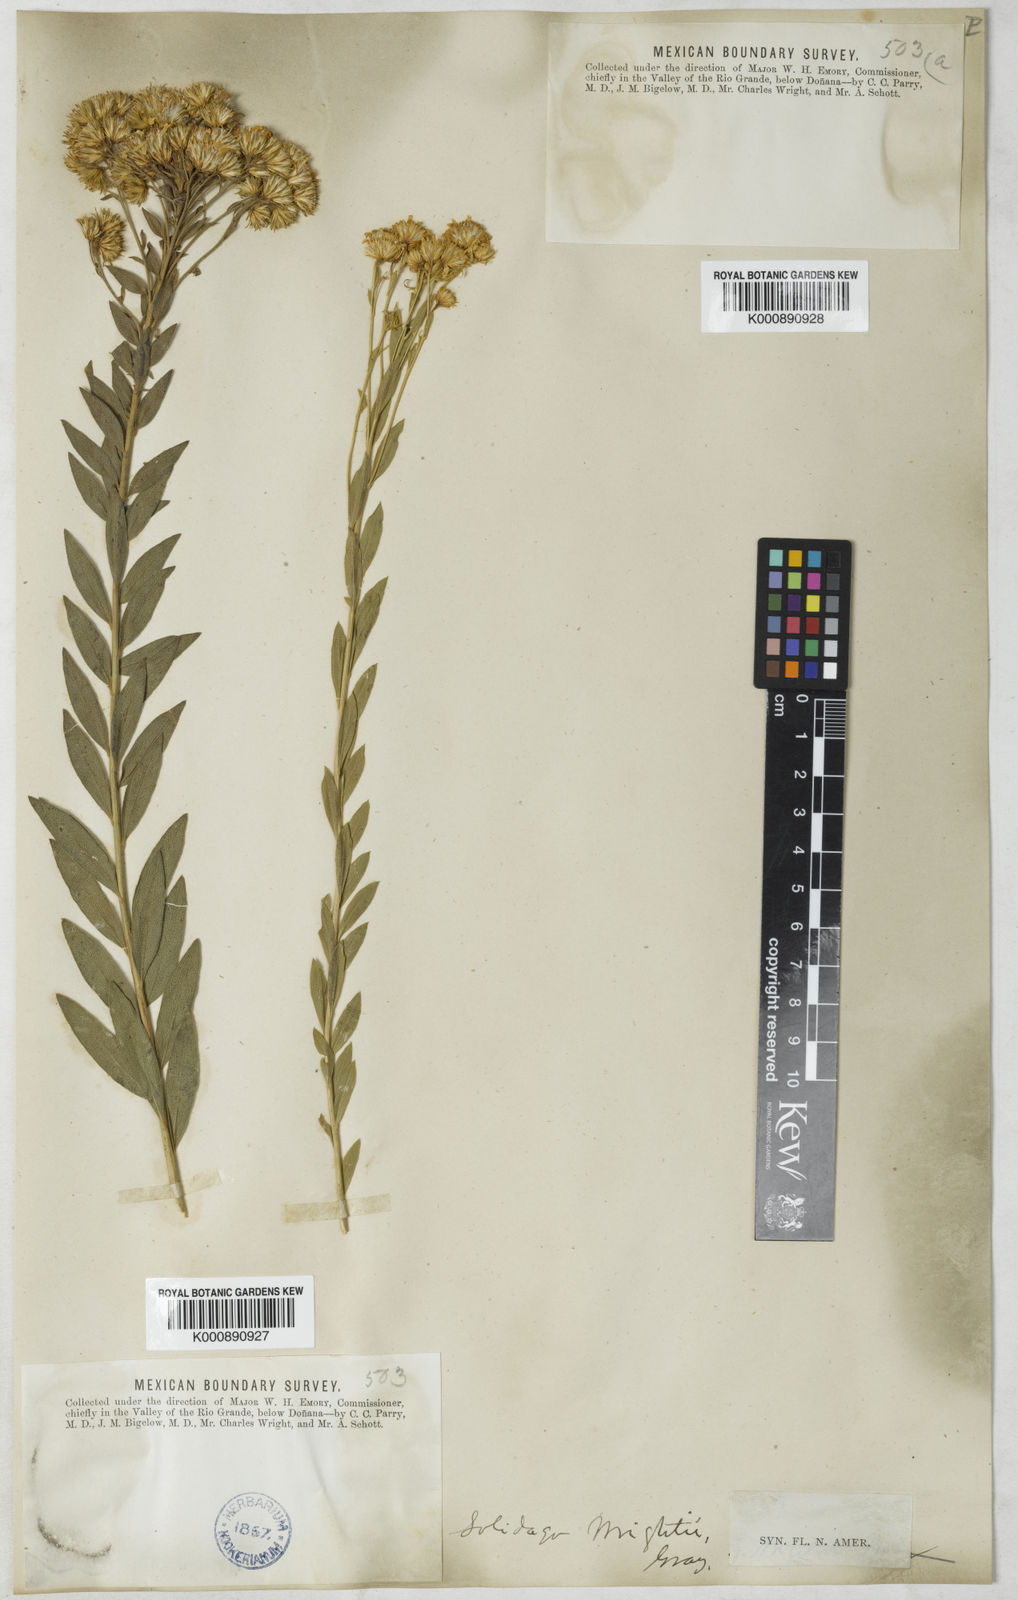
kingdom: Plantae
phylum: Tracheophyta
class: Magnoliopsida
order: Asterales
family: Asteraceae
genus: Solidago
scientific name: Solidago wrightii
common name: Wright's goldenrod
